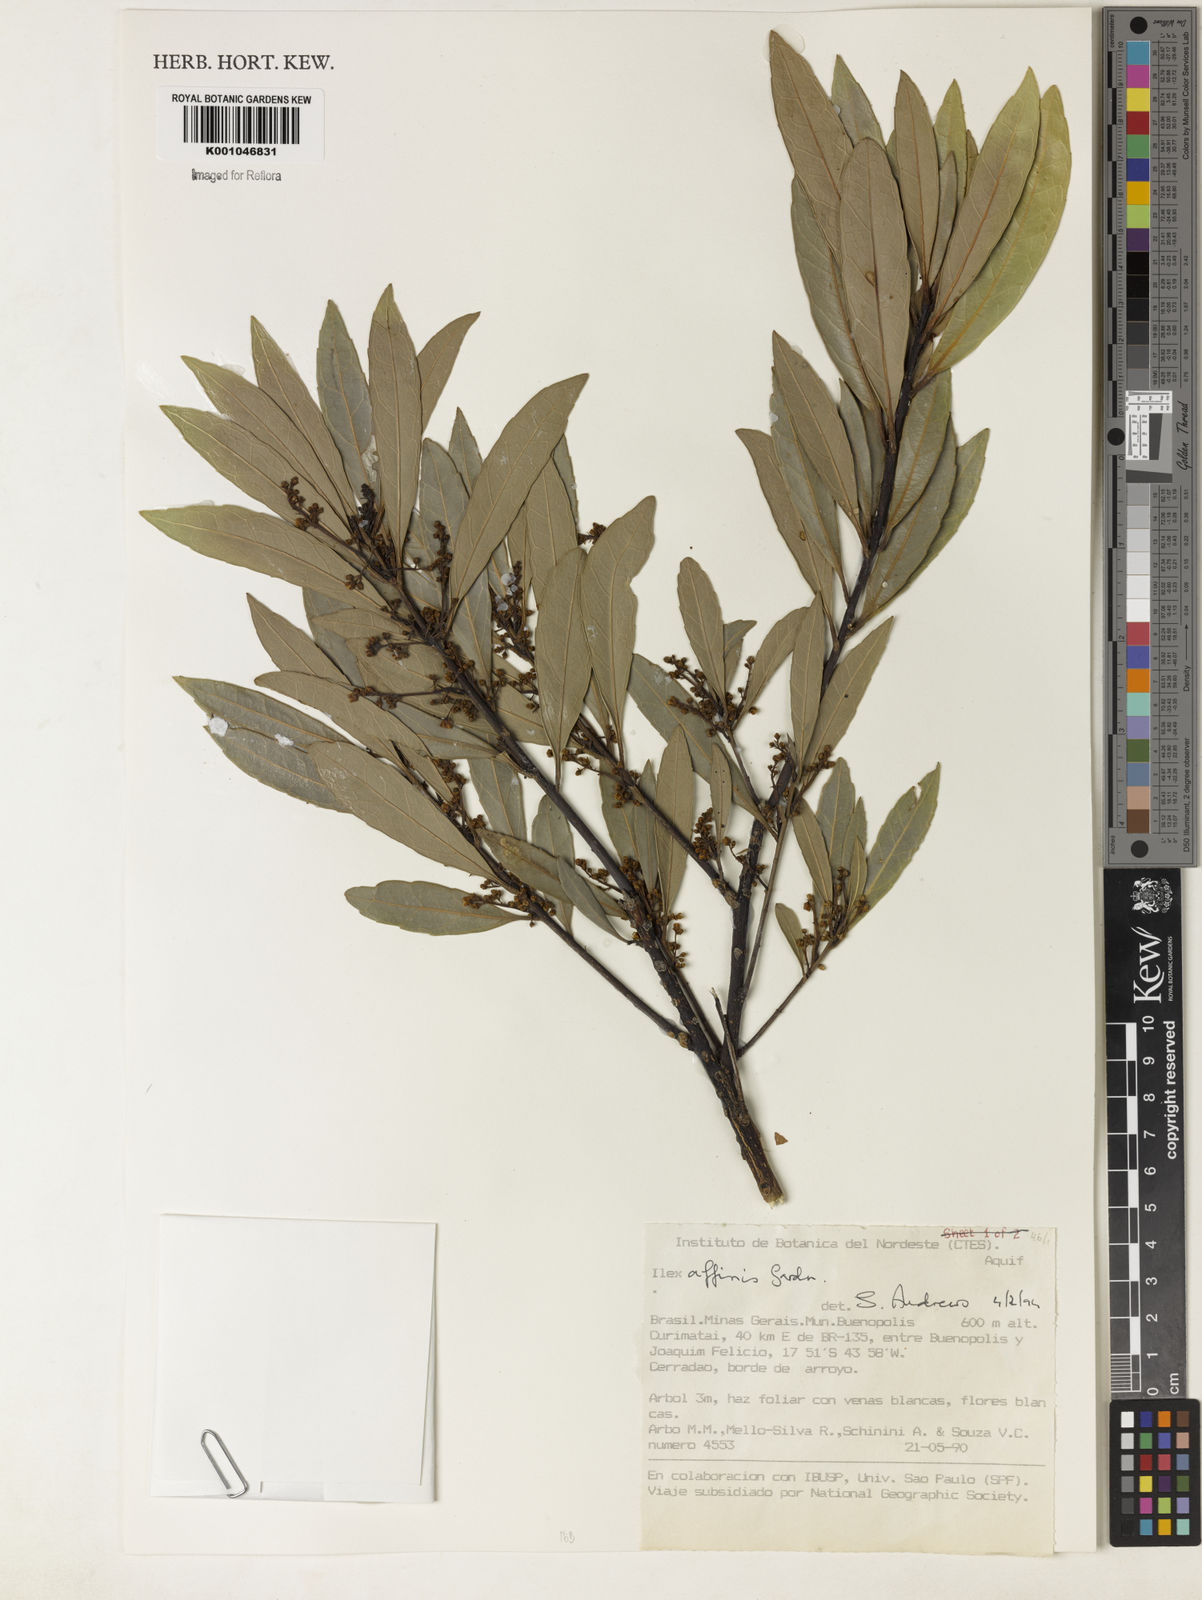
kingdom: Plantae
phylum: Tracheophyta
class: Magnoliopsida
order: Aquifoliales
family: Aquifoliaceae
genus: Ilex
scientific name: Ilex affinis
